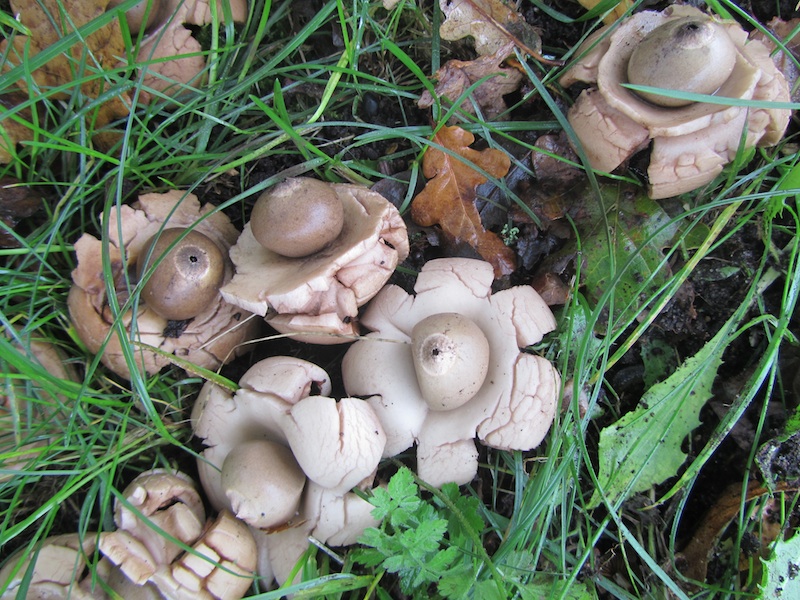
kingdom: Fungi
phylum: Basidiomycota
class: Agaricomycetes
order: Geastrales
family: Geastraceae
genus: Geastrum
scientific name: Geastrum michelianum
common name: kødet stjernebold
